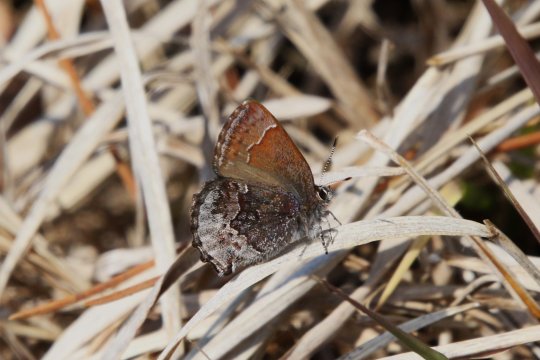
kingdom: Animalia
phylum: Arthropoda
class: Insecta
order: Lepidoptera
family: Lycaenidae
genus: Callophrys
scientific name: Callophrys polios
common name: Hoary Elfin
